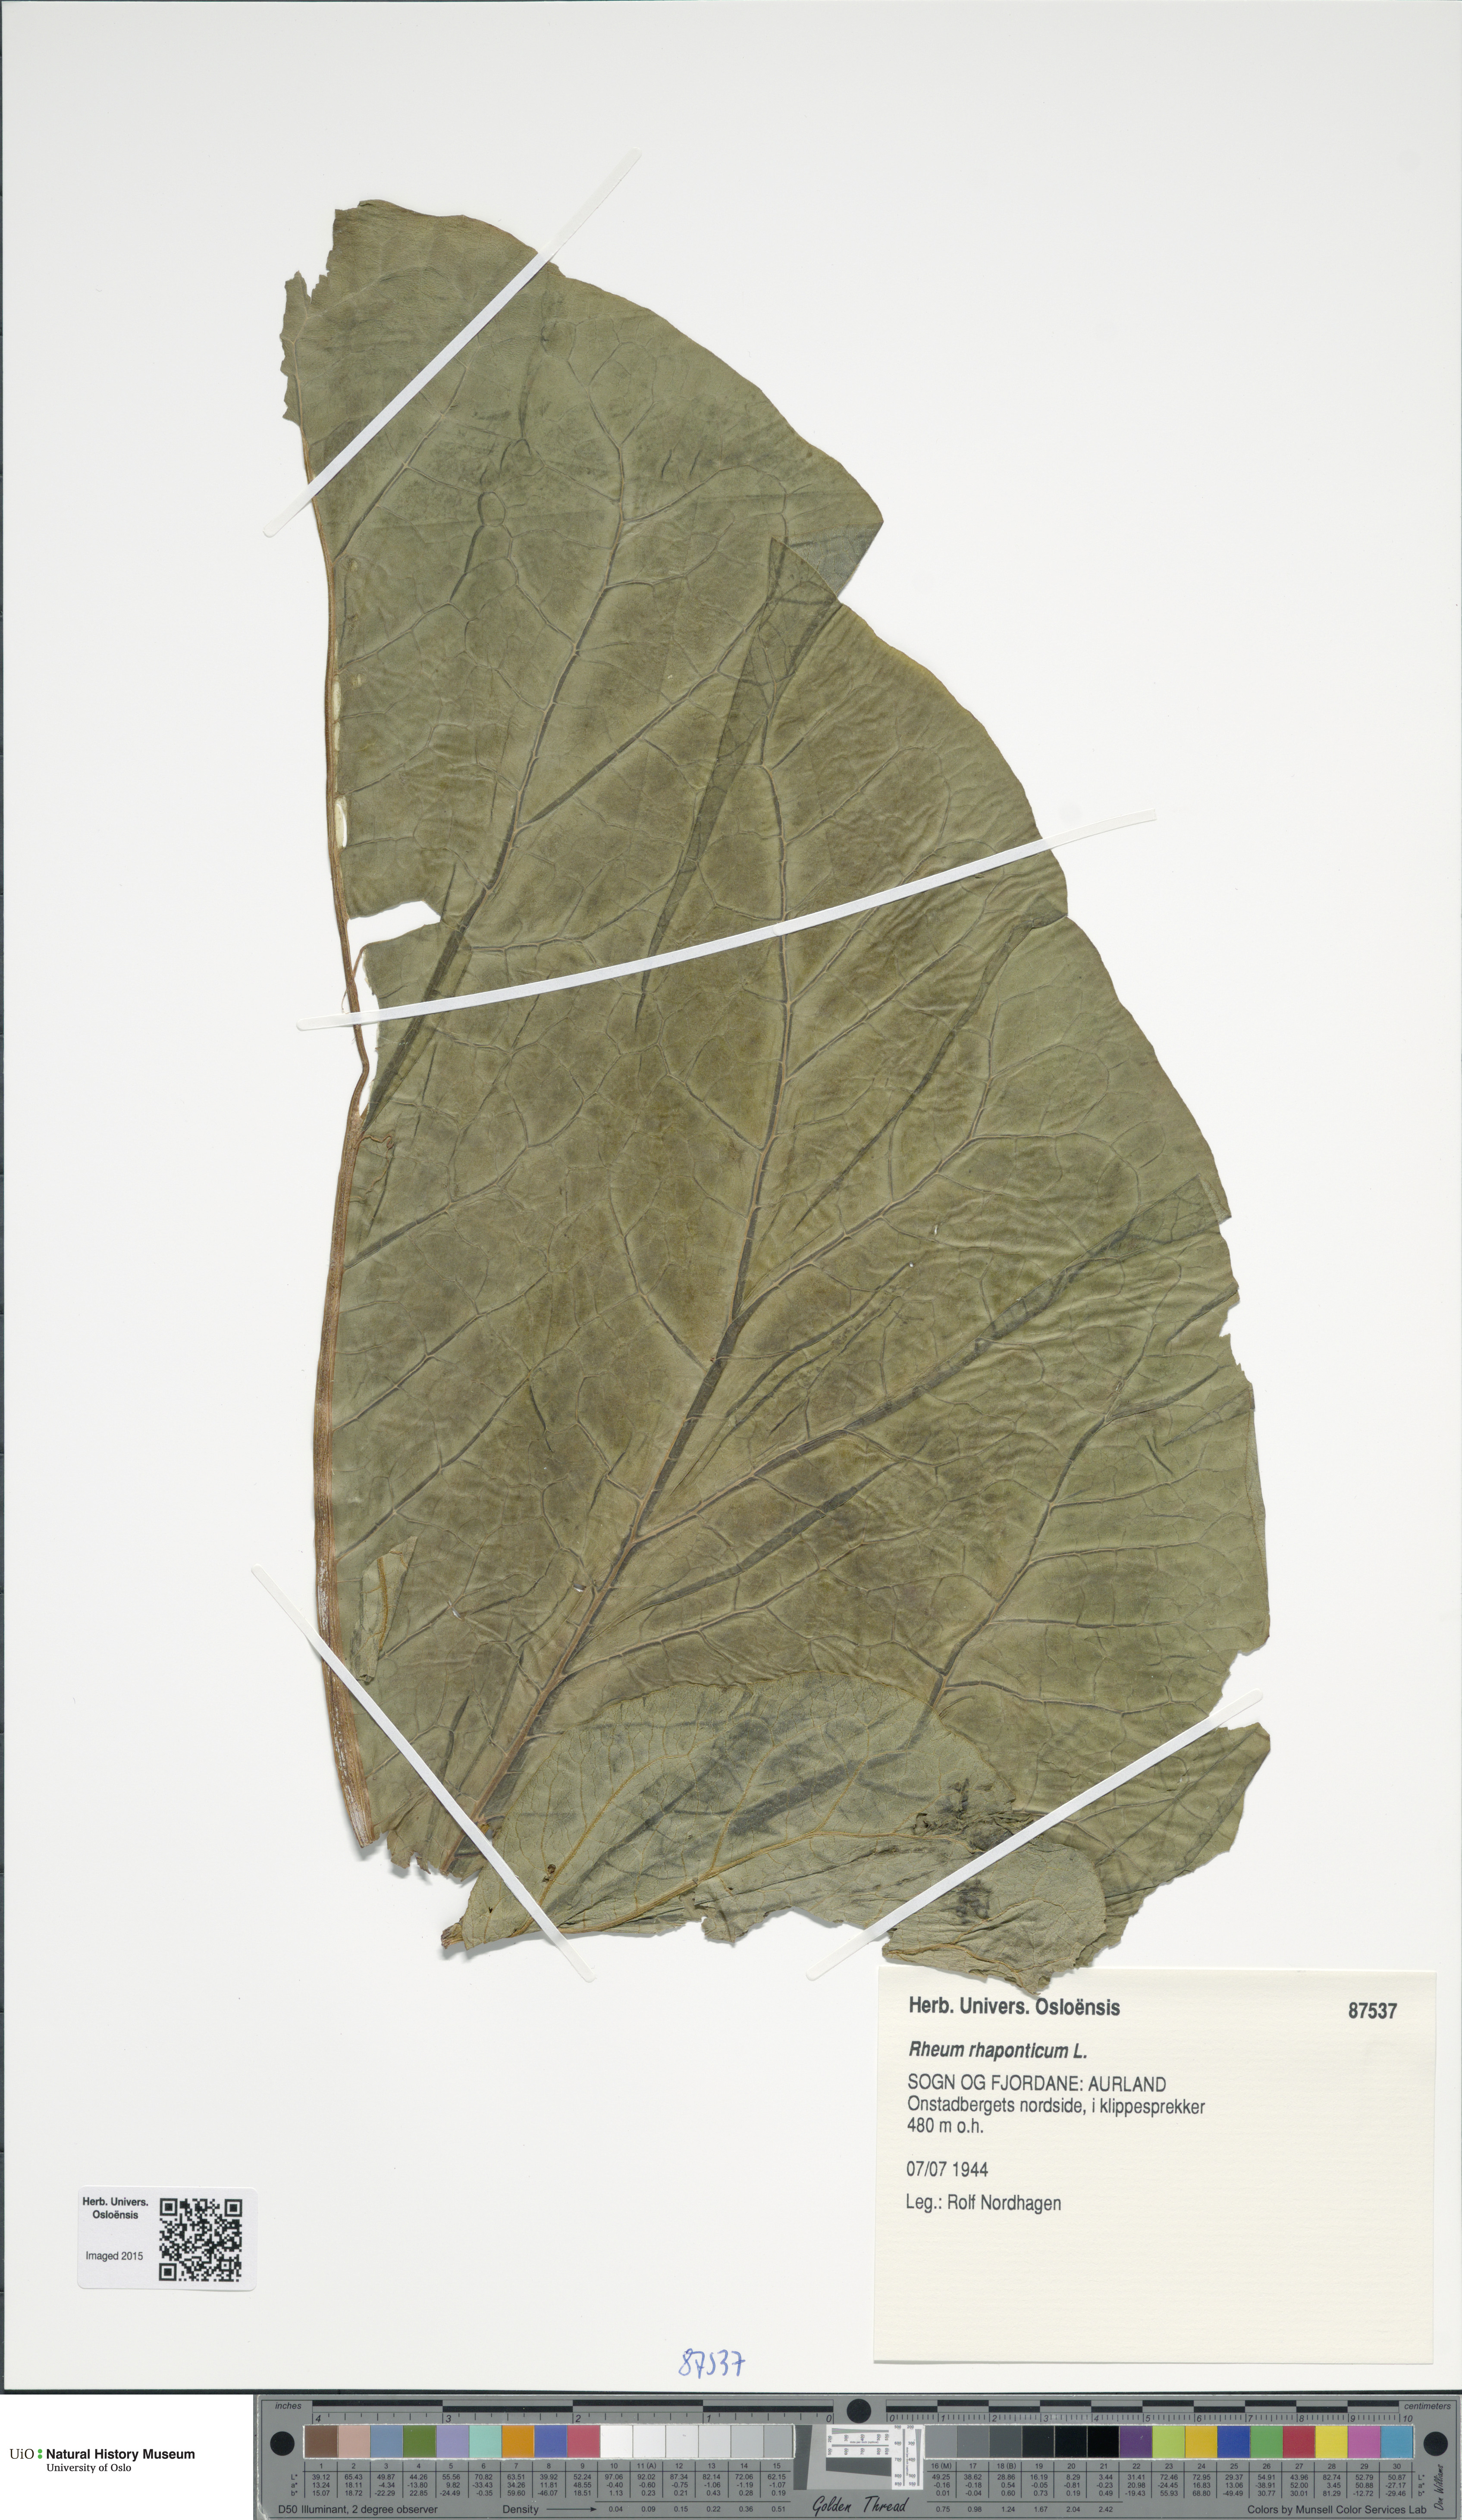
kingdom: Plantae
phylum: Tracheophyta
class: Magnoliopsida
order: Caryophyllales
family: Polygonaceae
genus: Rheum
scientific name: Rheum rhaponticum
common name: Rhubarb
